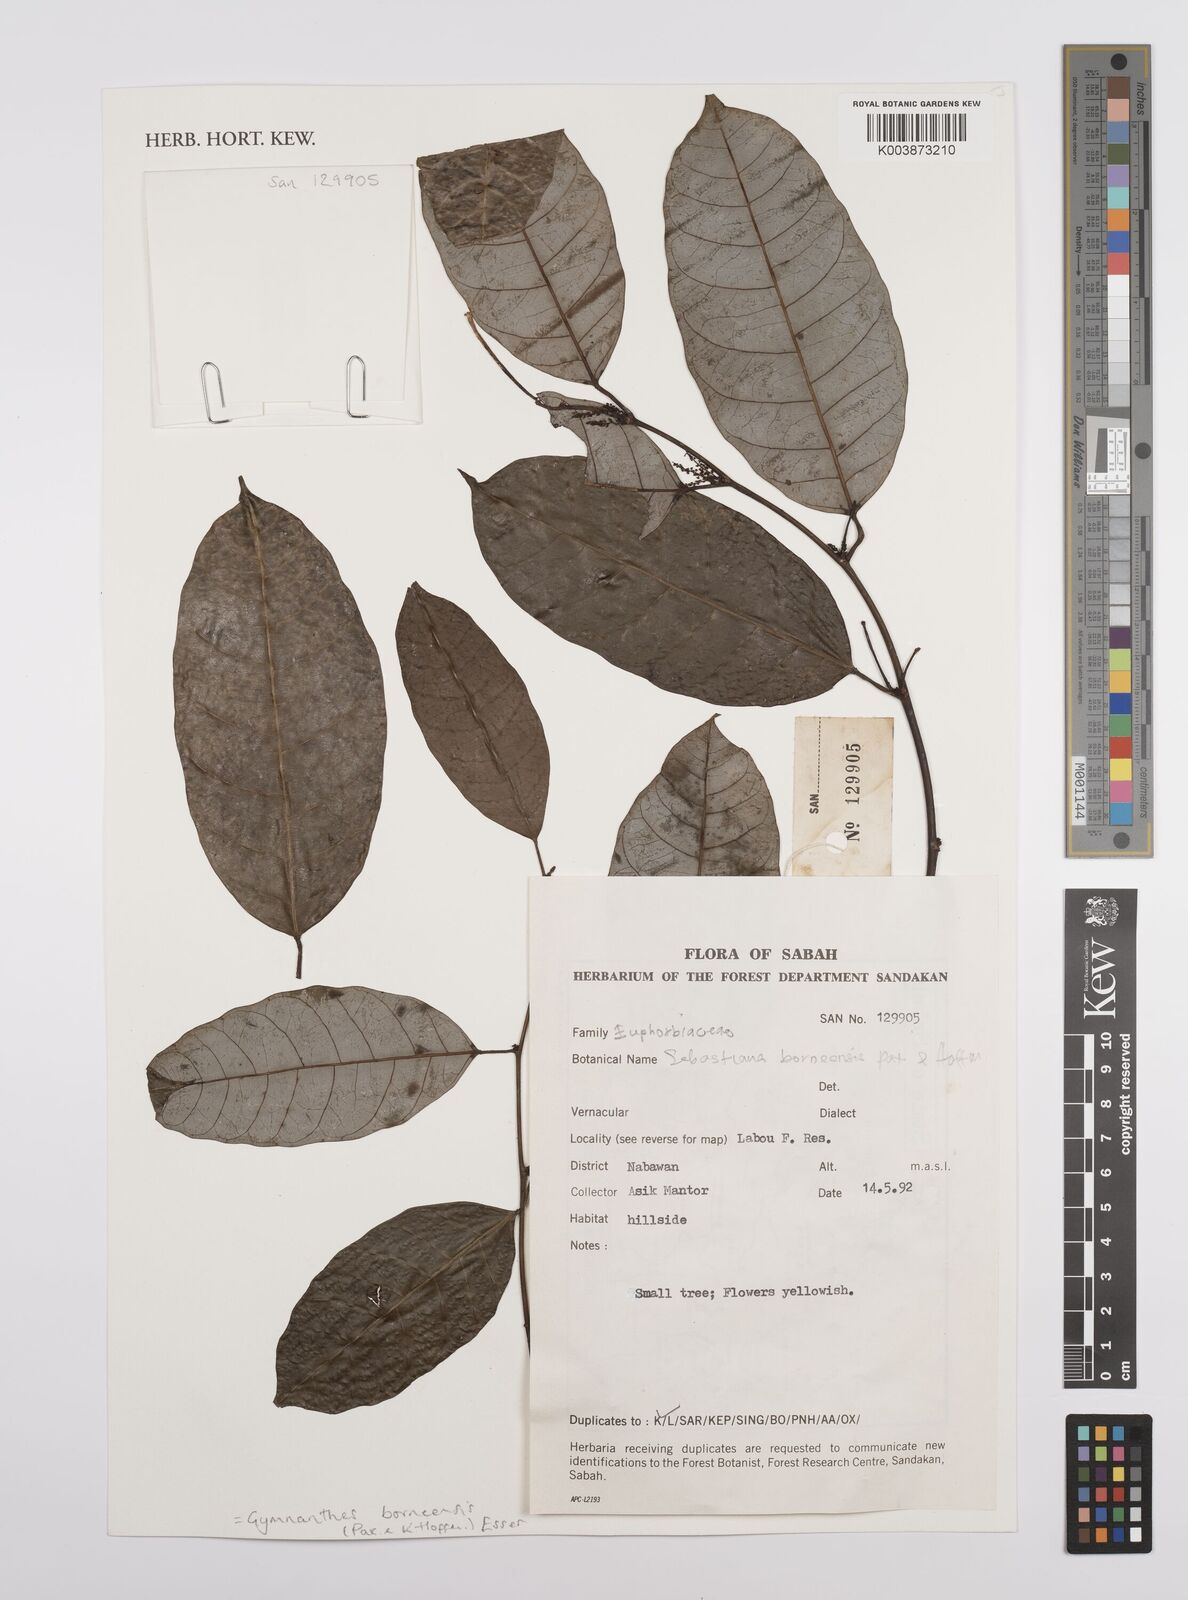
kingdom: Plantae
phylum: Tracheophyta
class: Magnoliopsida
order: Malpighiales
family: Euphorbiaceae
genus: Gymnanthes
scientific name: Gymnanthes borneensis
